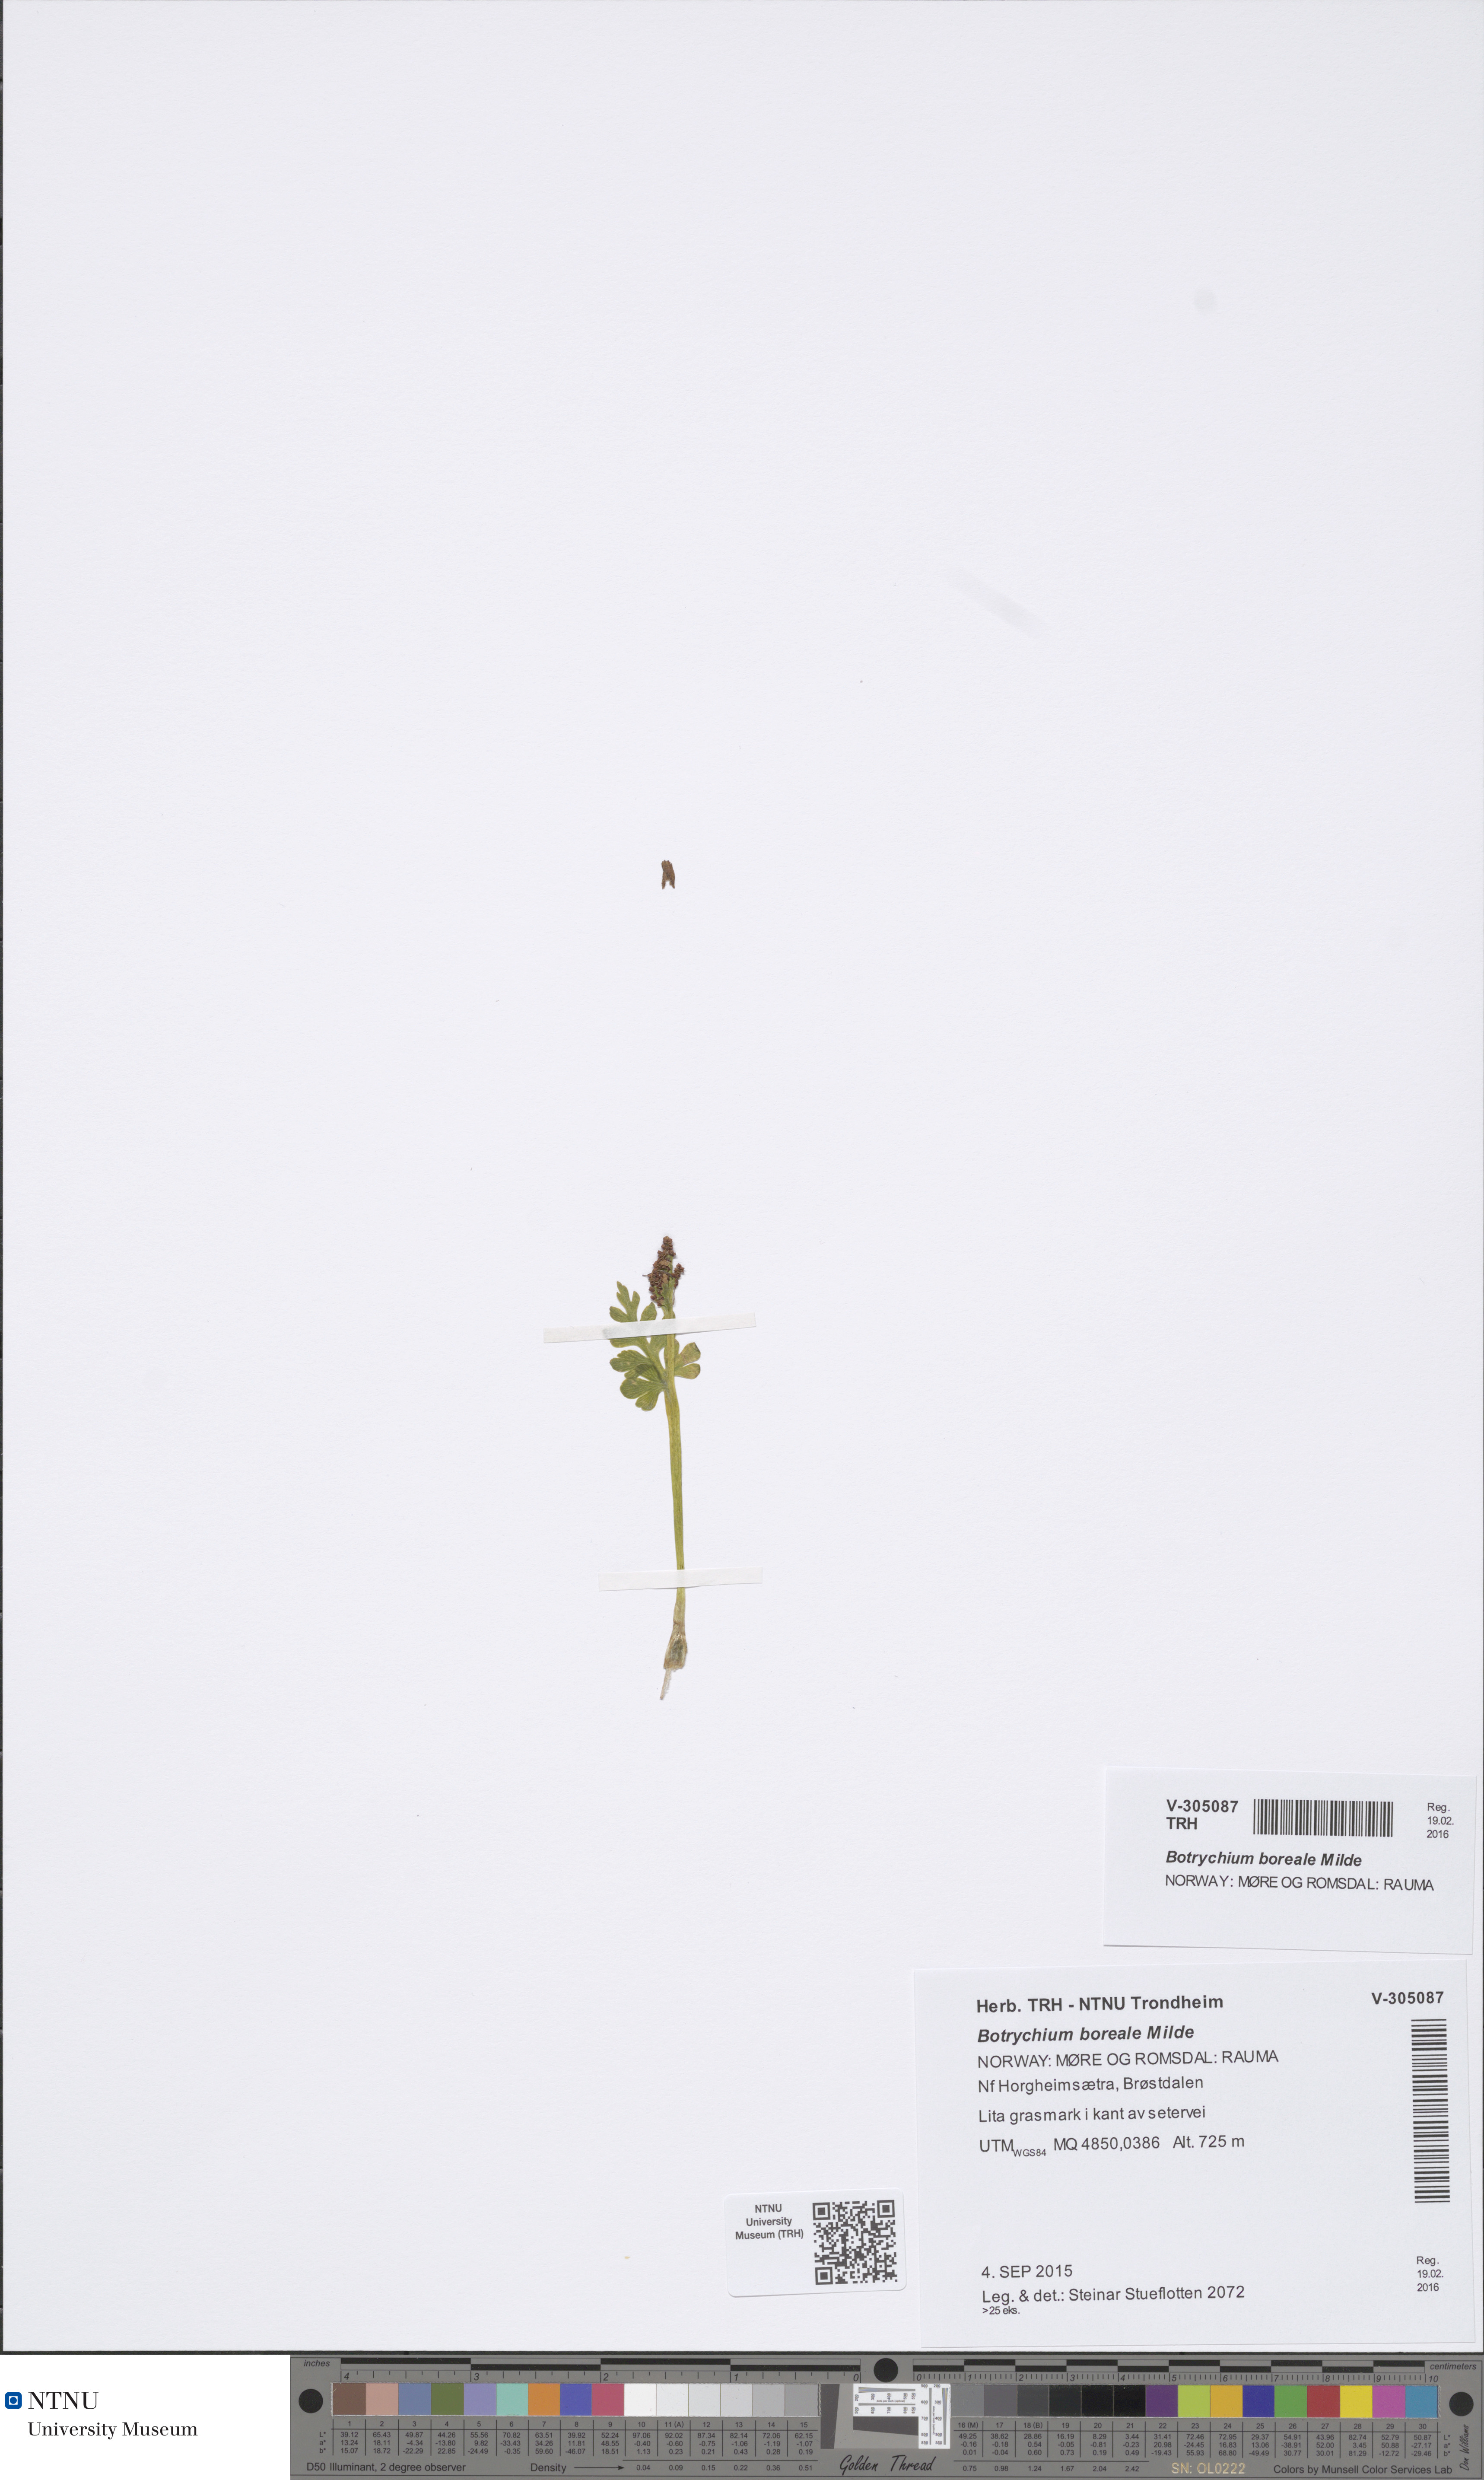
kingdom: Plantae
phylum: Tracheophyta
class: Polypodiopsida
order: Ophioglossales
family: Ophioglossaceae
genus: Botrychium
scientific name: Botrychium boreale
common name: Boreal moonwort
